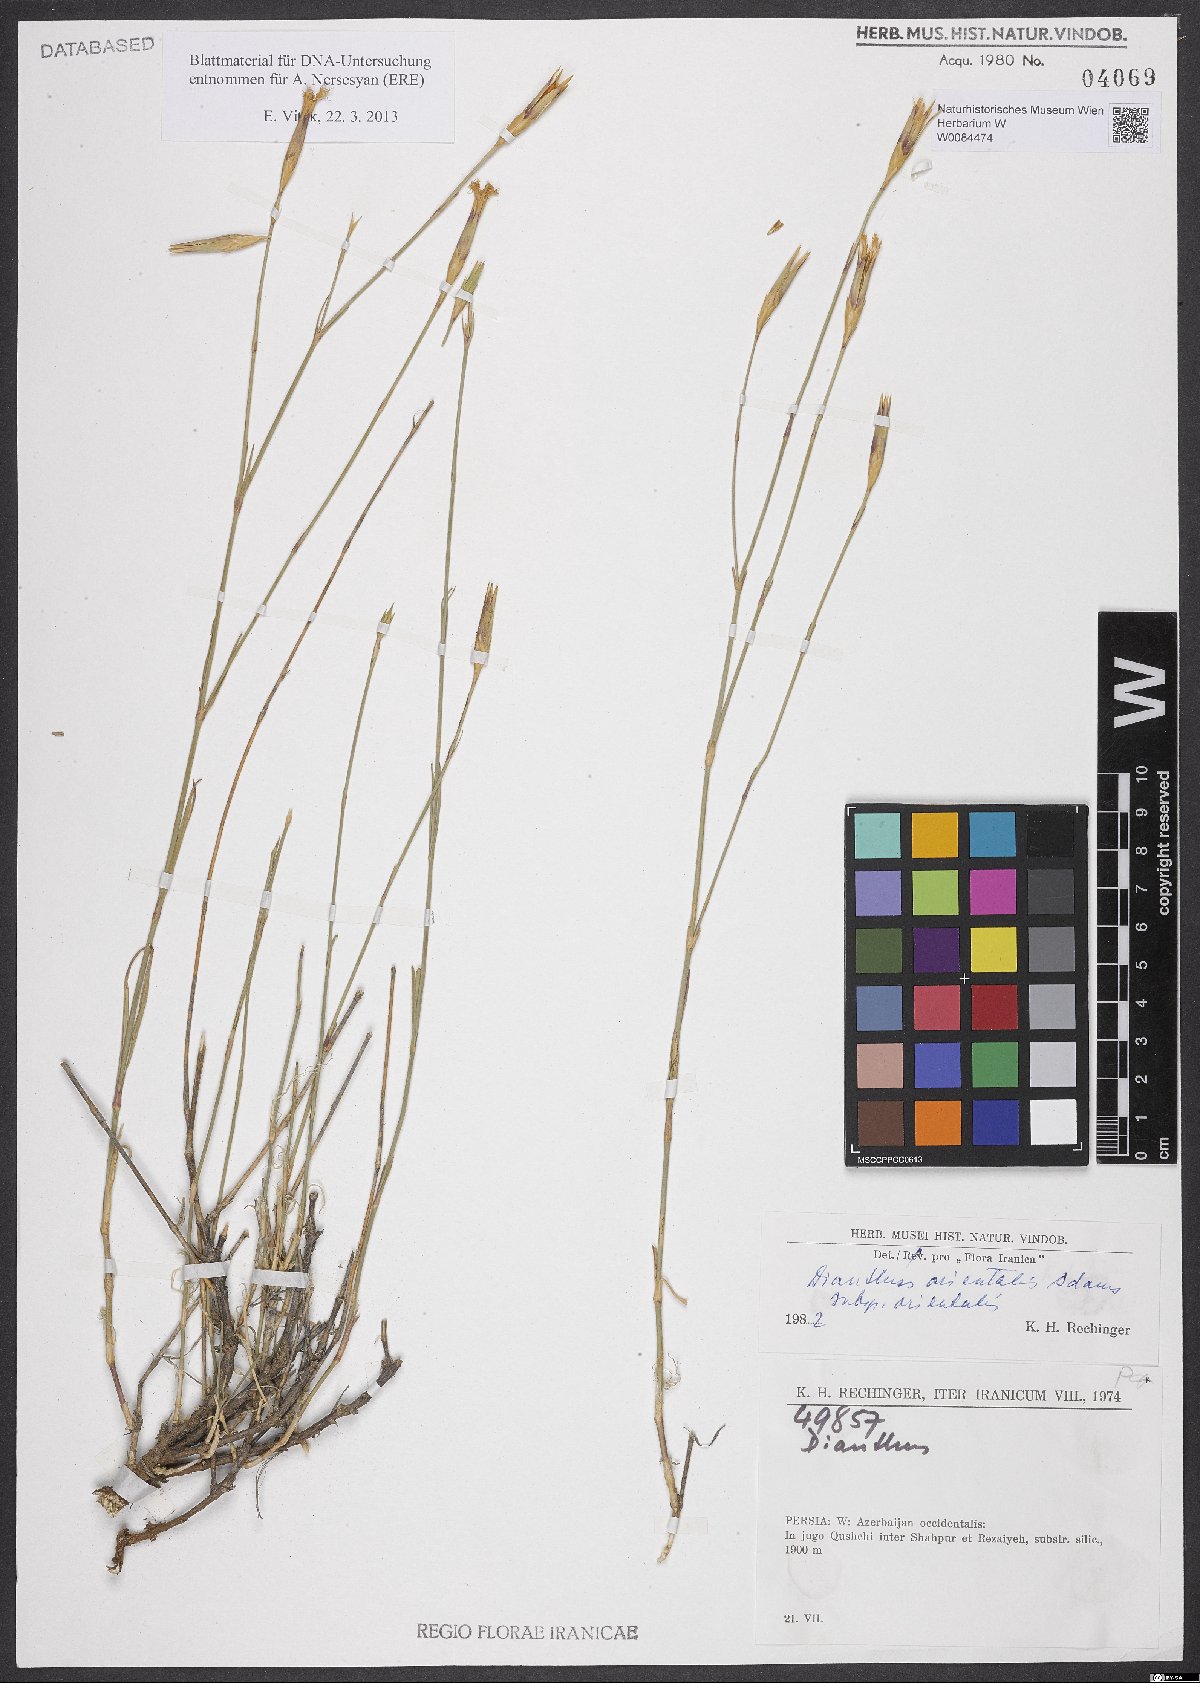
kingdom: Plantae
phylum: Tracheophyta
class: Magnoliopsida
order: Caryophyllales
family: Caryophyllaceae
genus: Dianthus
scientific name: Dianthus orientalis
